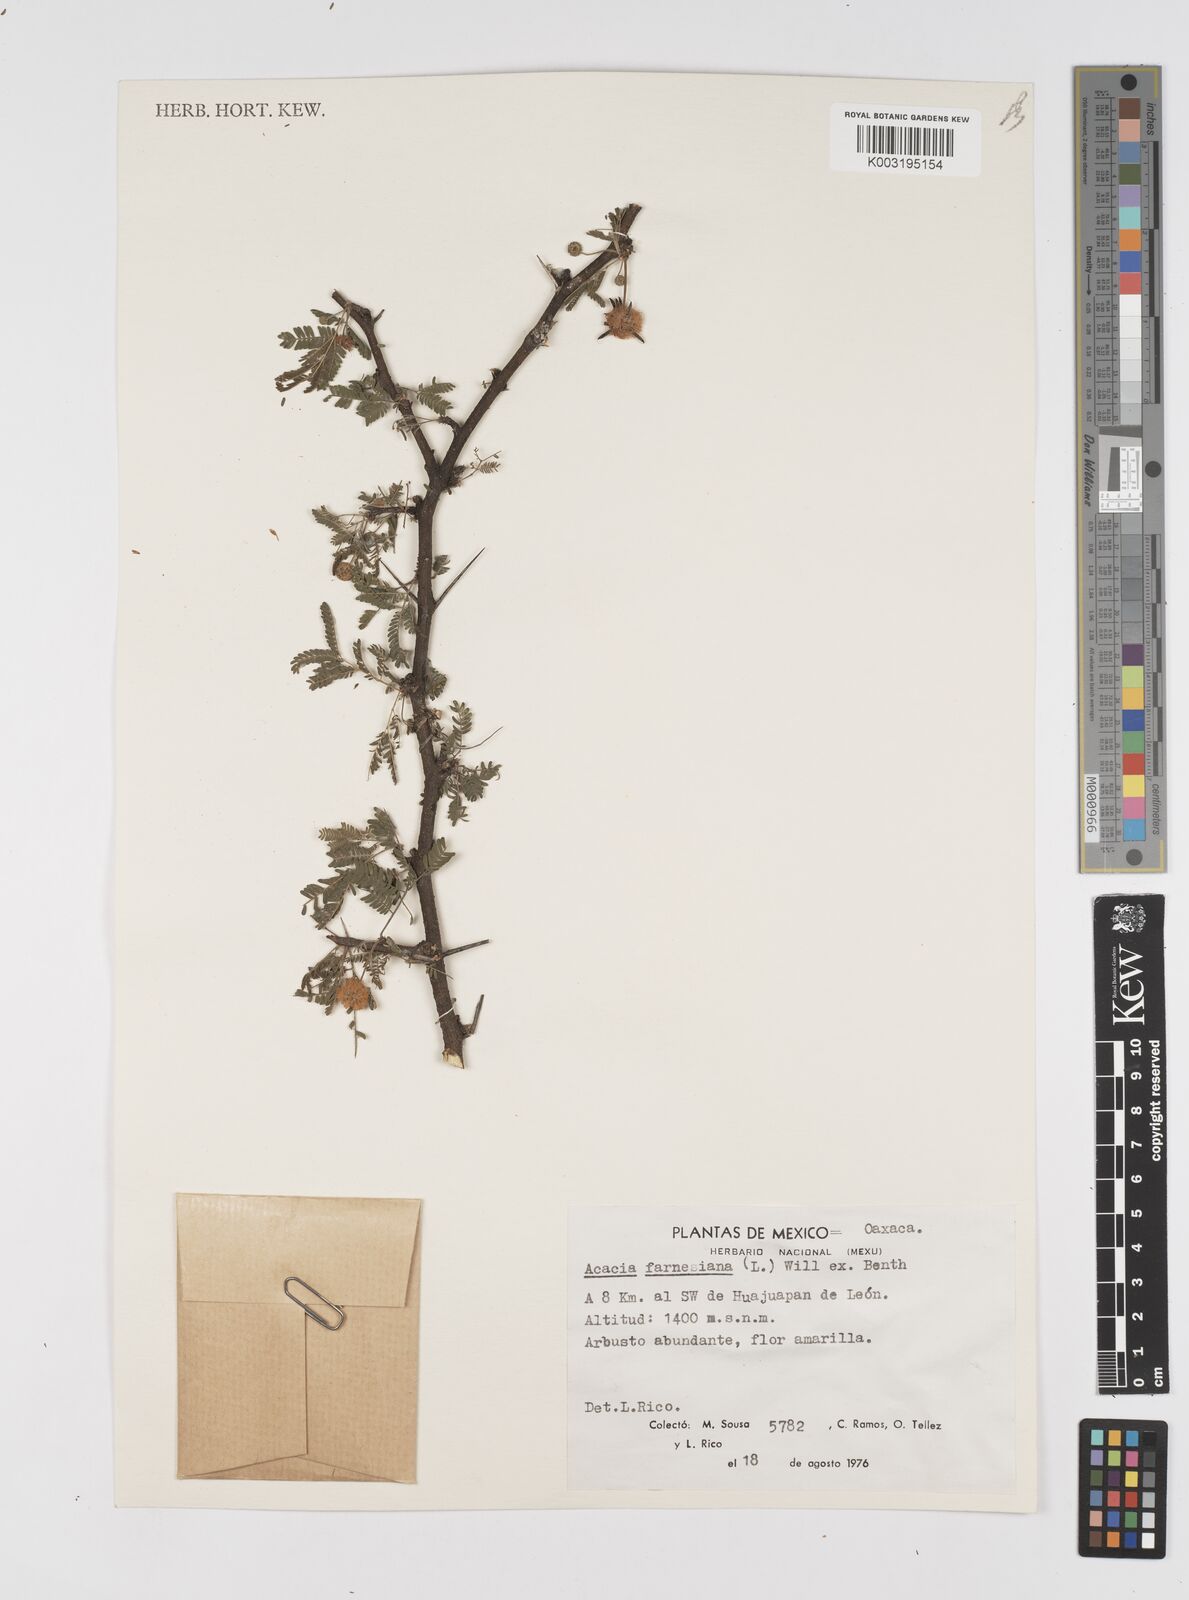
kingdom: Plantae
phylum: Tracheophyta
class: Magnoliopsida
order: Fabales
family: Fabaceae
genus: Vachellia
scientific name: Vachellia farnesiana
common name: Sweet acacia
